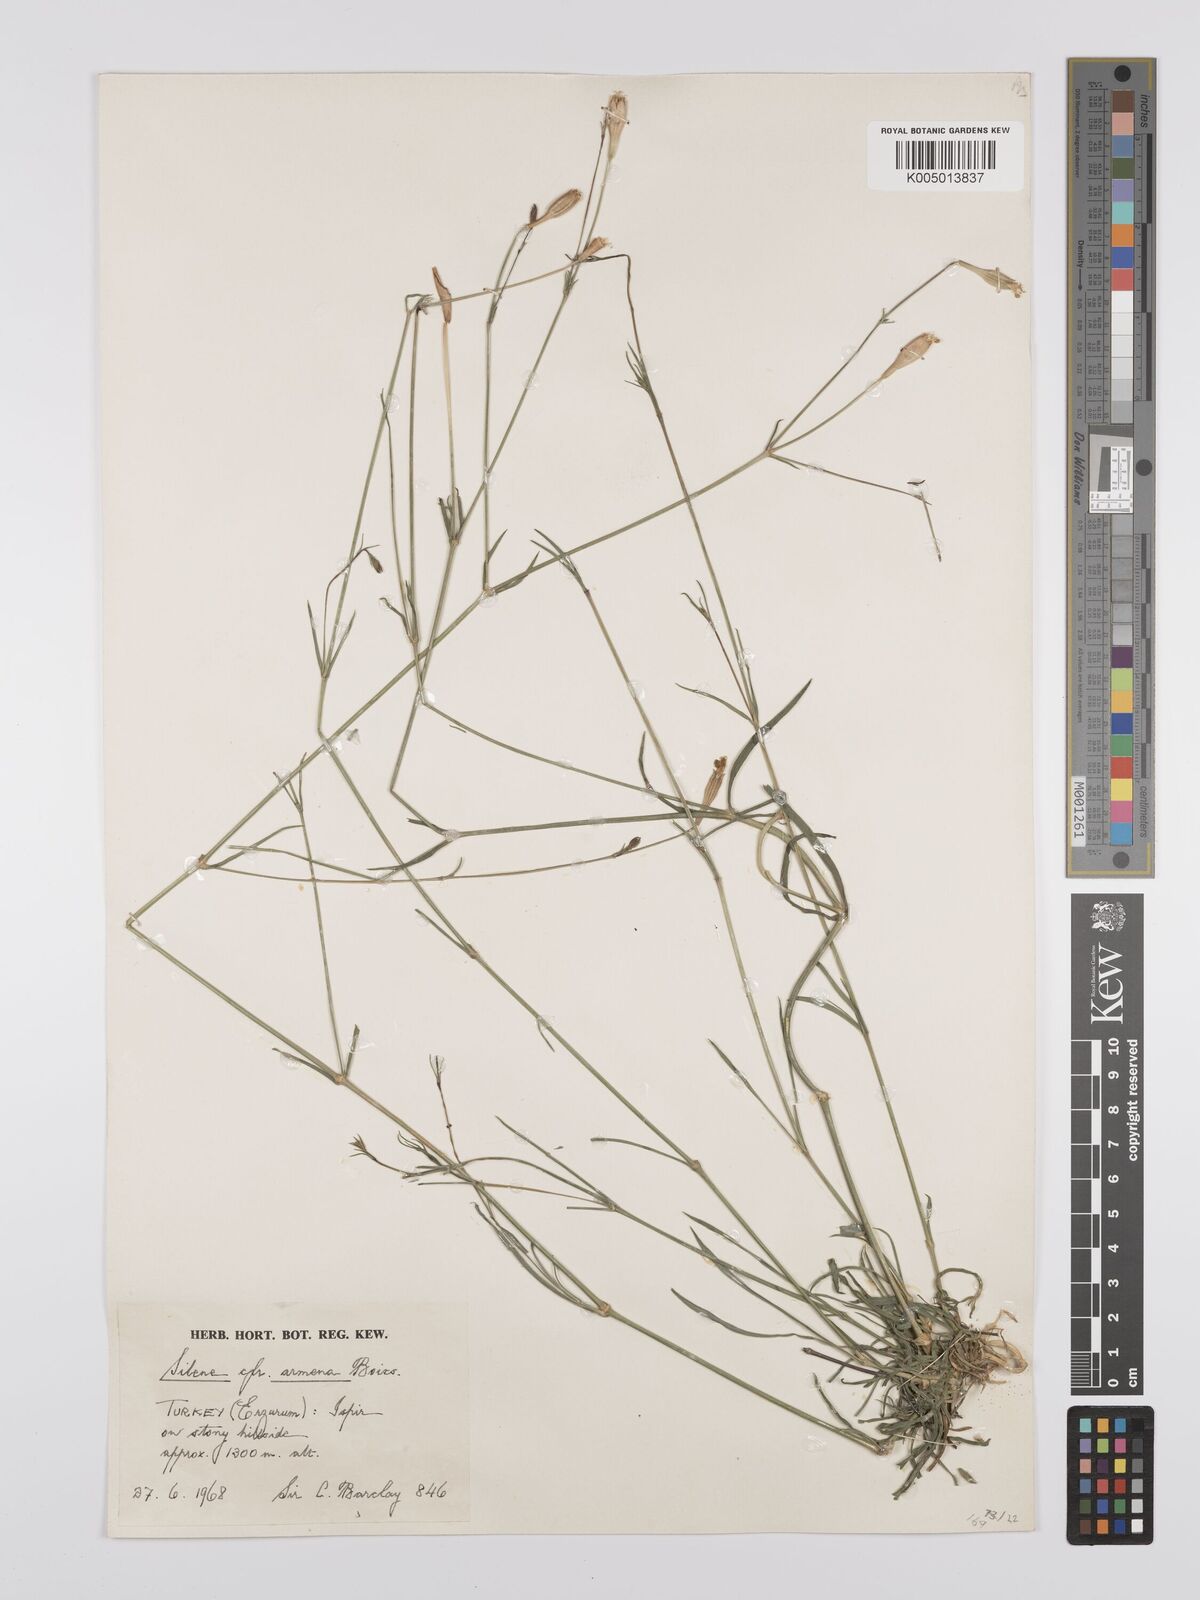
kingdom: Plantae
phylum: Tracheophyta
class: Magnoliopsida
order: Caryophyllales
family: Caryophyllaceae
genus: Silene
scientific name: Silene
